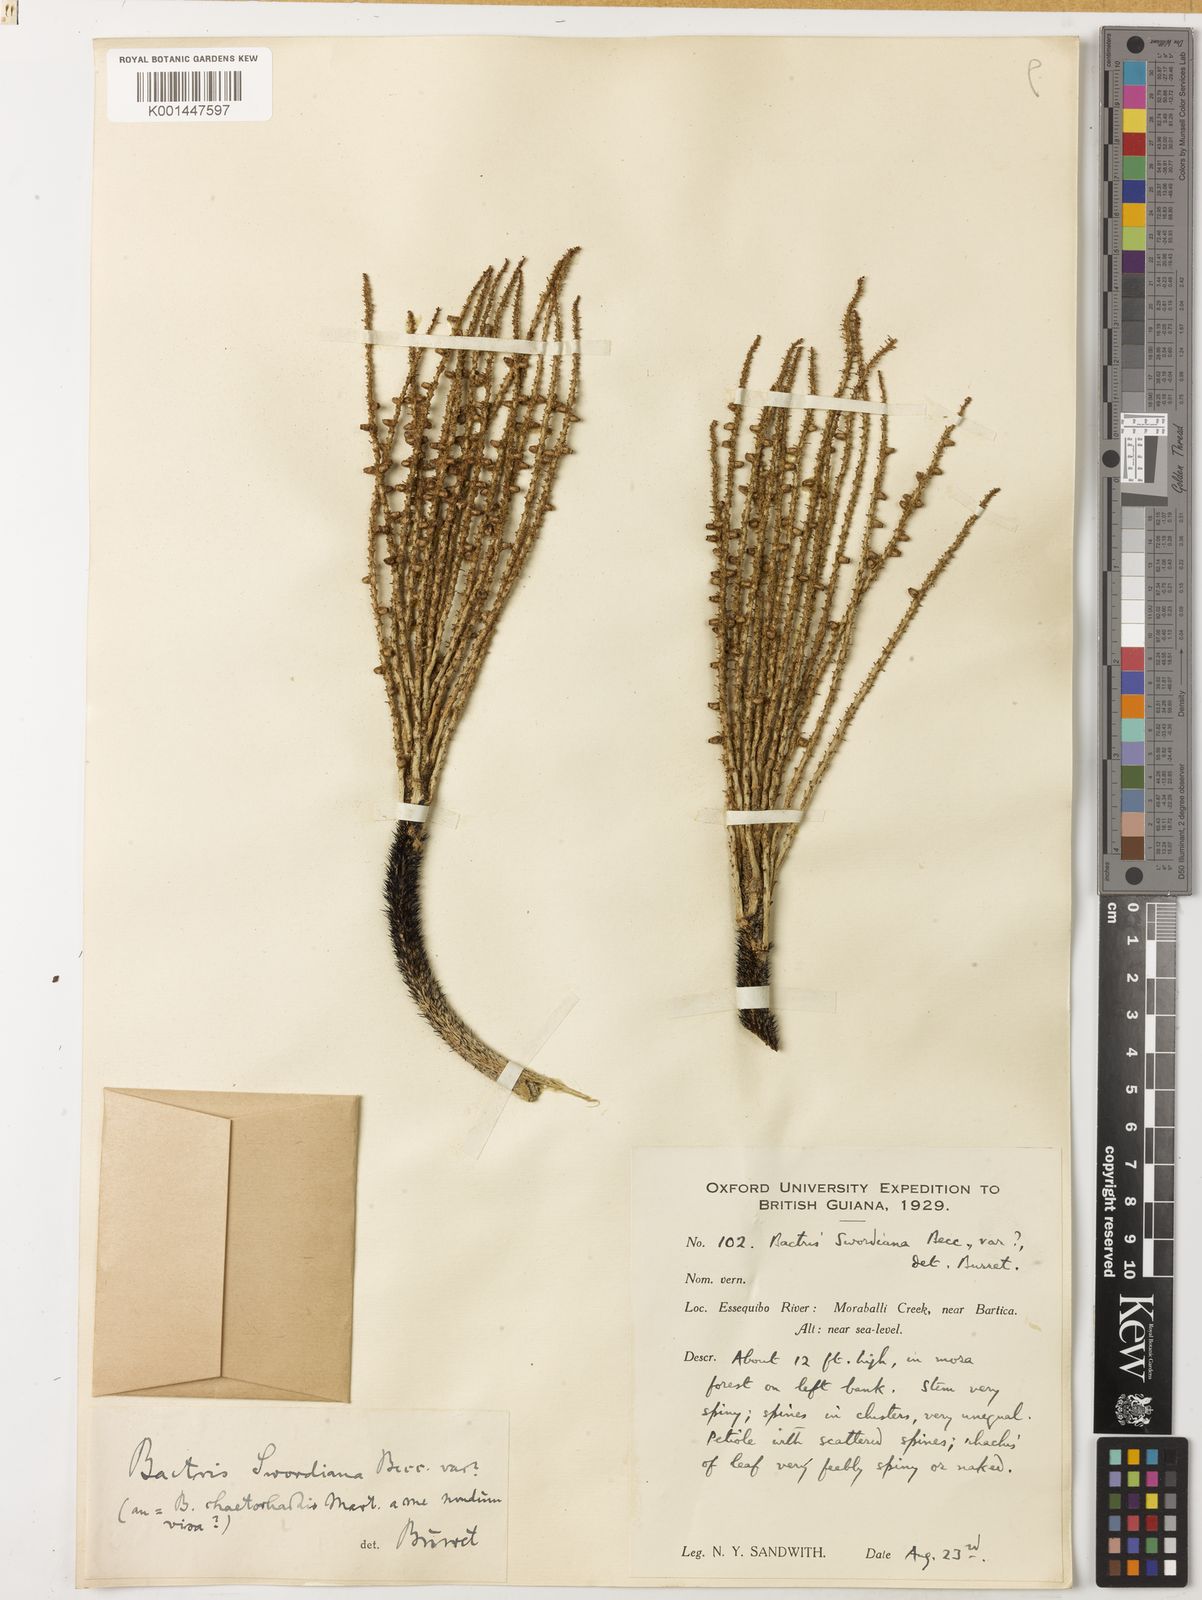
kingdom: Plantae
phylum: Tracheophyta
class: Liliopsida
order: Arecales
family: Arecaceae
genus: Bactris
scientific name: Bactris setulosa
